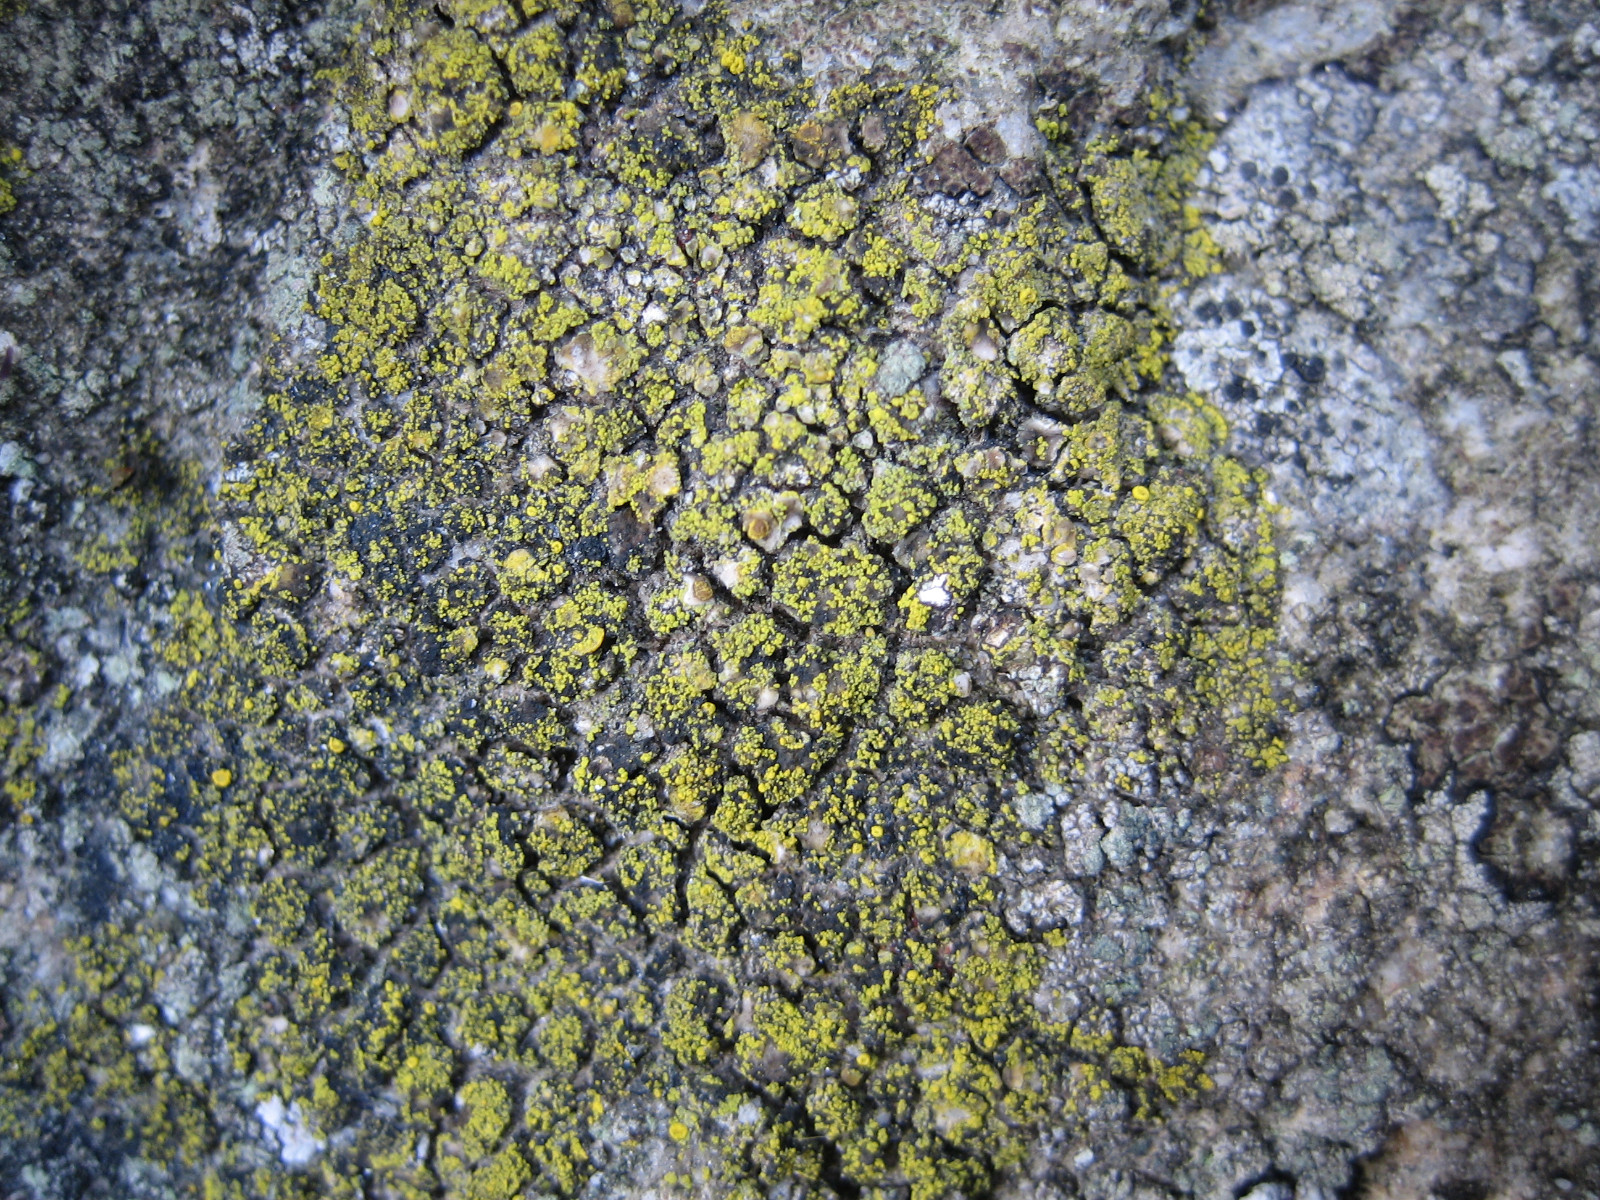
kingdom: Fungi
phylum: Ascomycota
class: Candelariomycetes
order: Candelariales
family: Candelariaceae
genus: Candelariella
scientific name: Candelariella vitellina
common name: almindelig æggeblommelav
